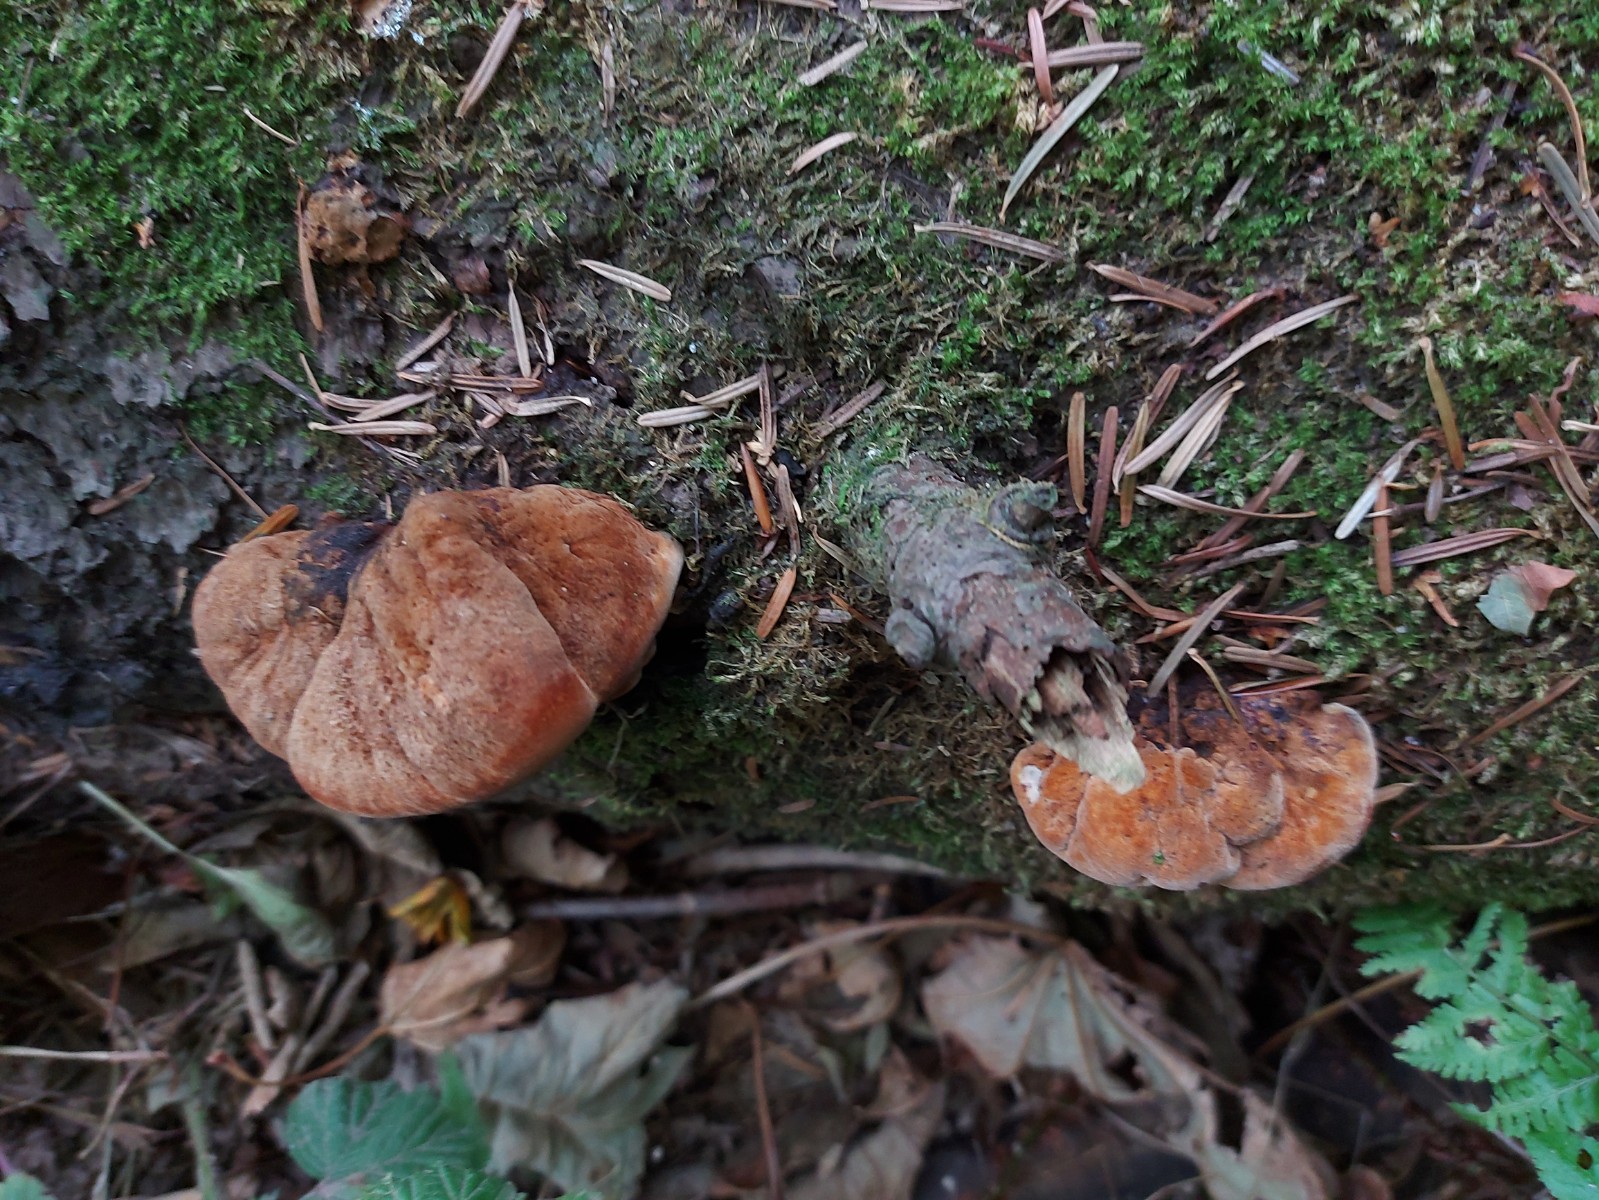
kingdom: Fungi
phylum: Basidiomycota
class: Agaricomycetes
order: Polyporales
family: Laetiporaceae
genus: Phaeolus
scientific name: Phaeolus schweinitzii
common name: brunporesvamp
